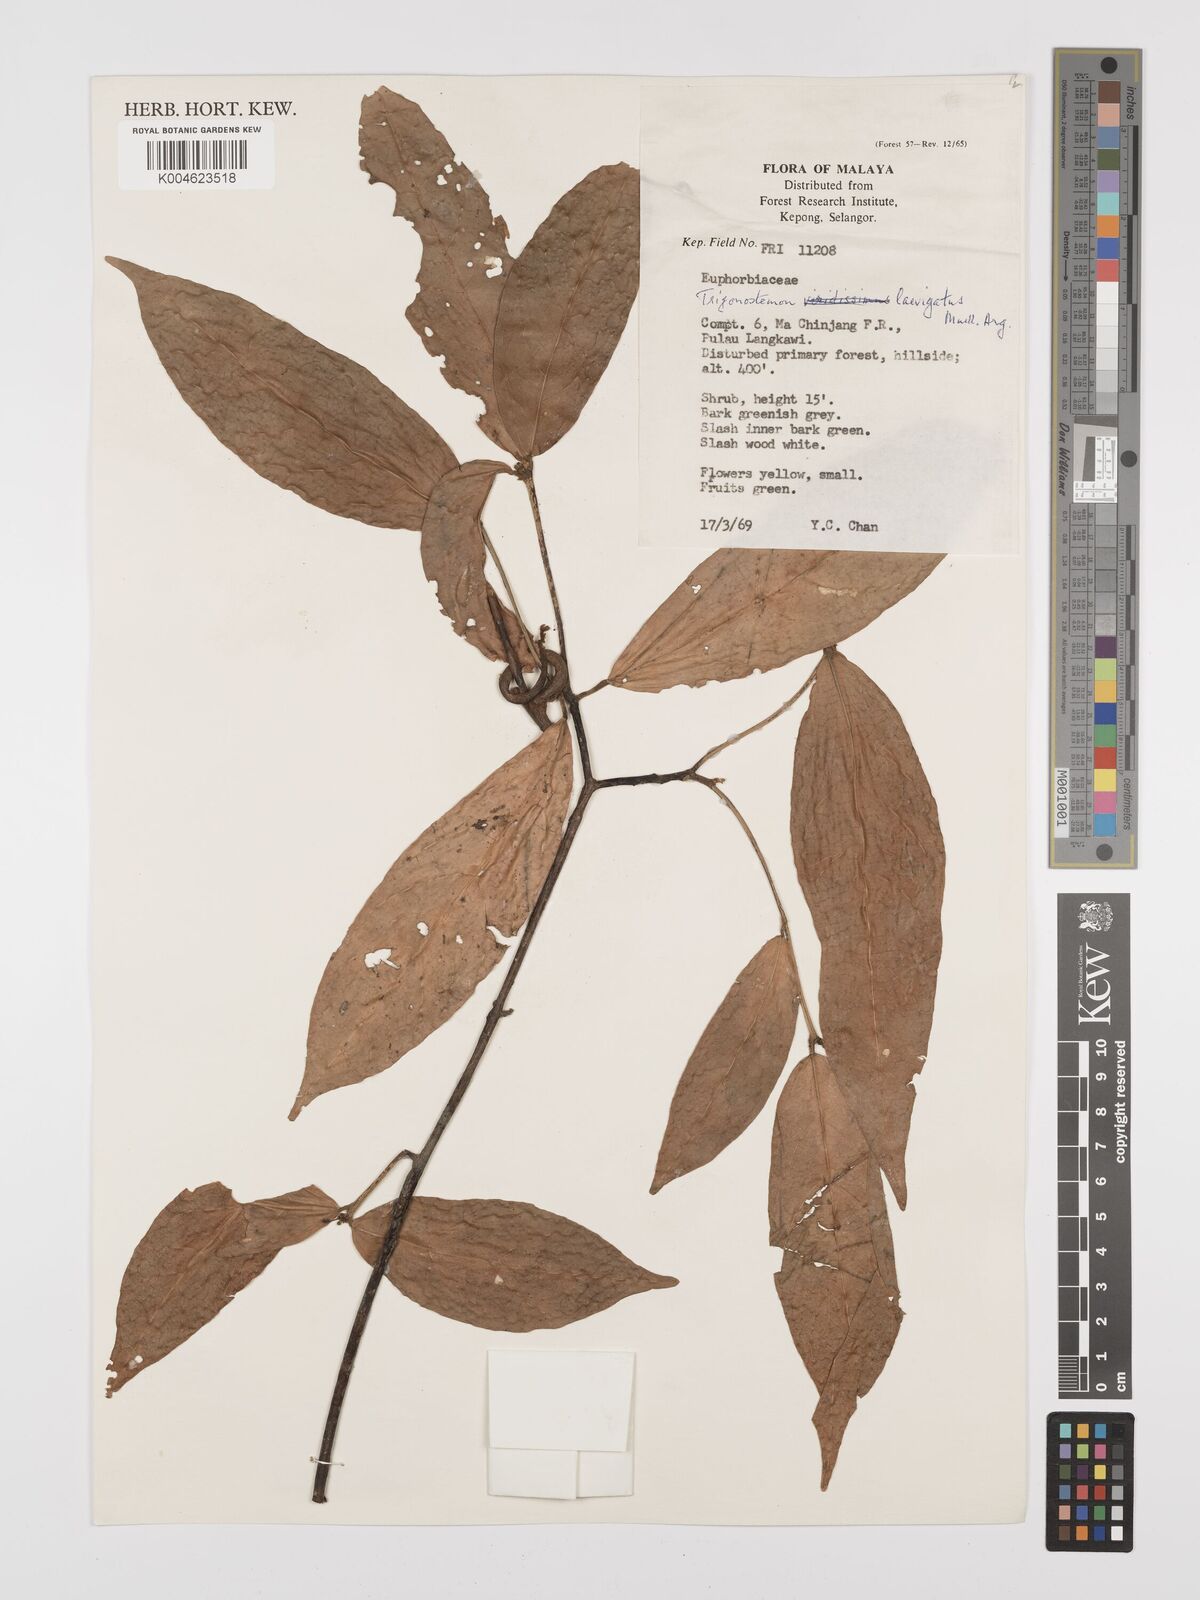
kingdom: Plantae
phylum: Tracheophyta
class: Magnoliopsida
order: Malpighiales
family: Euphorbiaceae
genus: Trigonostemon
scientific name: Trigonostemon laevigatus
